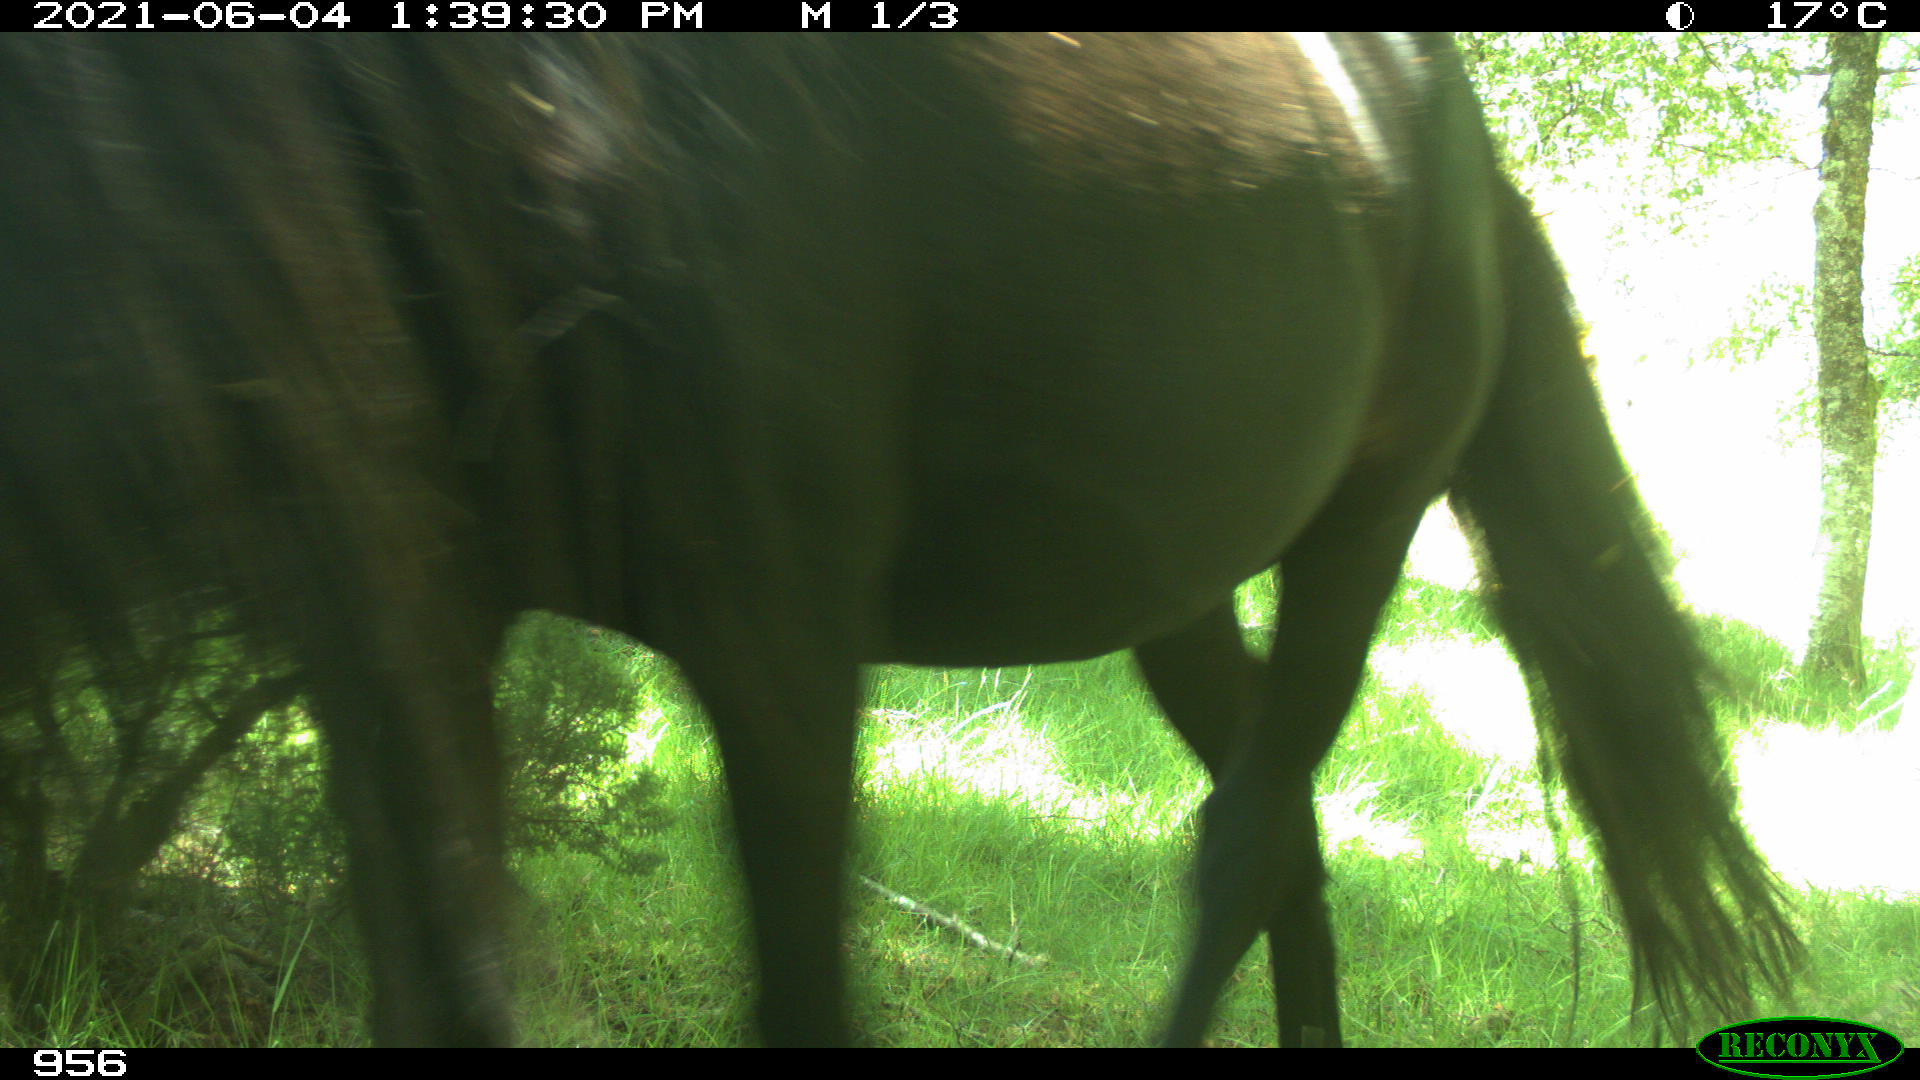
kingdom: Animalia
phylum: Chordata
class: Mammalia
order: Perissodactyla
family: Equidae
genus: Equus
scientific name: Equus caballus
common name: Horse
